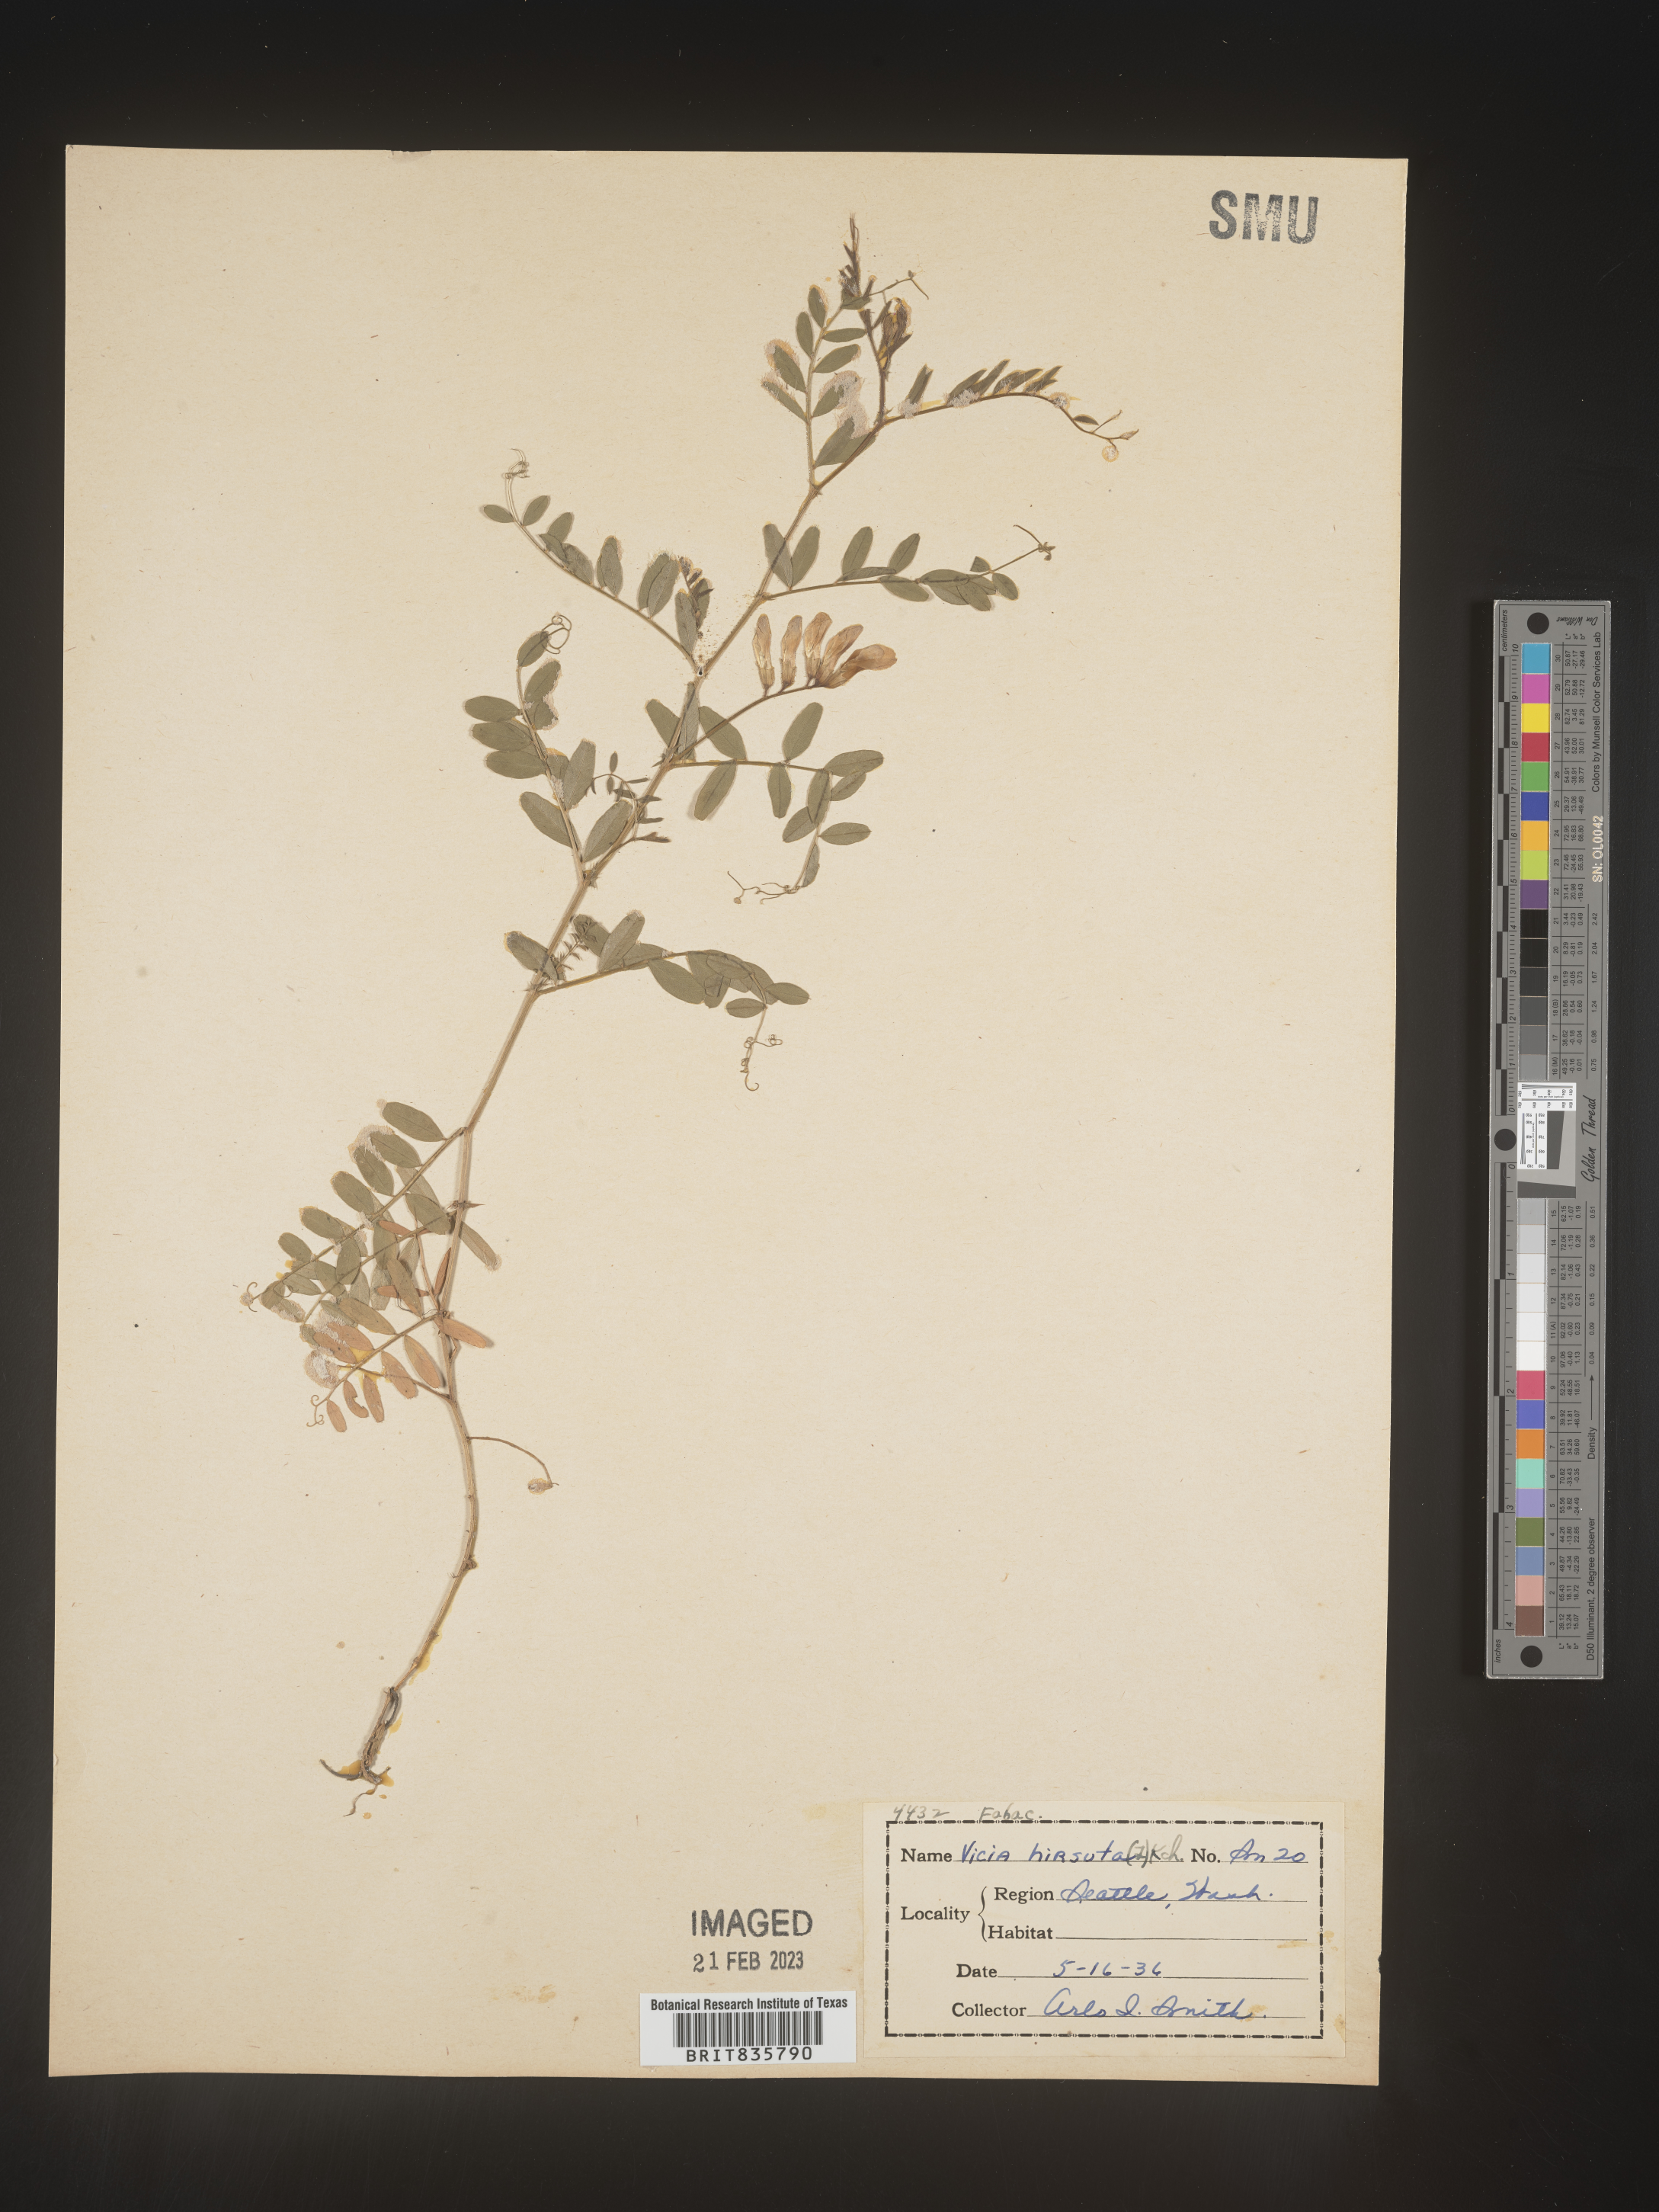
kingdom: Plantae
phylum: Tracheophyta
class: Magnoliopsida
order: Fabales
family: Fabaceae
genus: Vicia
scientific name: Vicia
